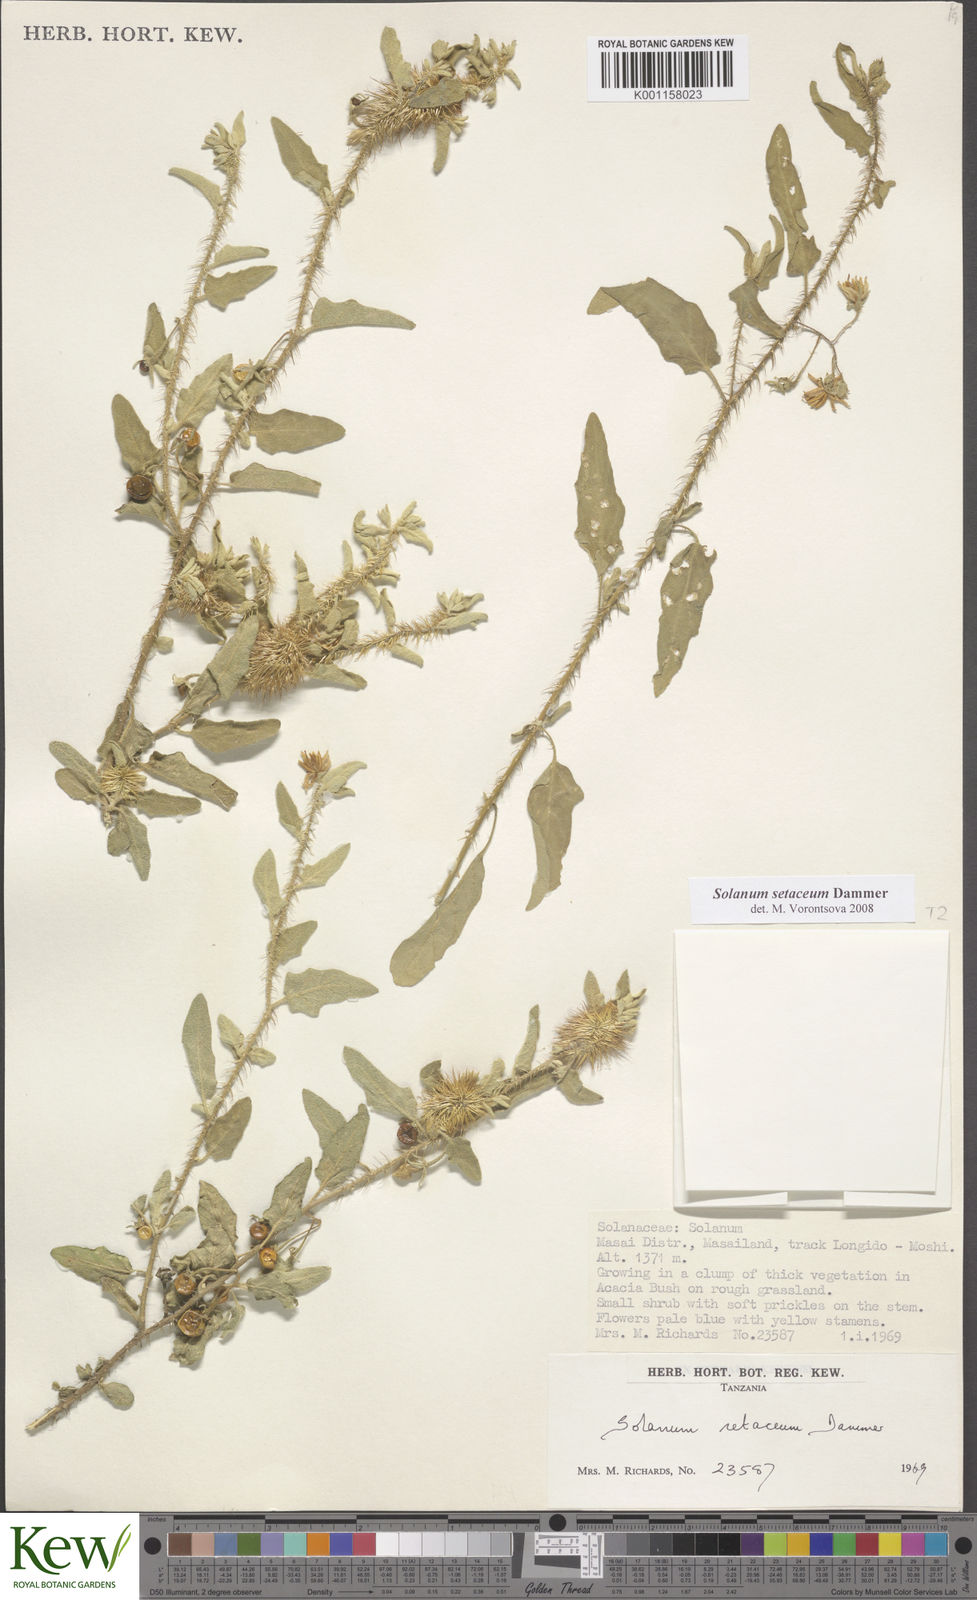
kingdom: Plantae
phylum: Tracheophyta
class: Magnoliopsida
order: Solanales
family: Solanaceae
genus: Solanum
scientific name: Solanum setaceum
